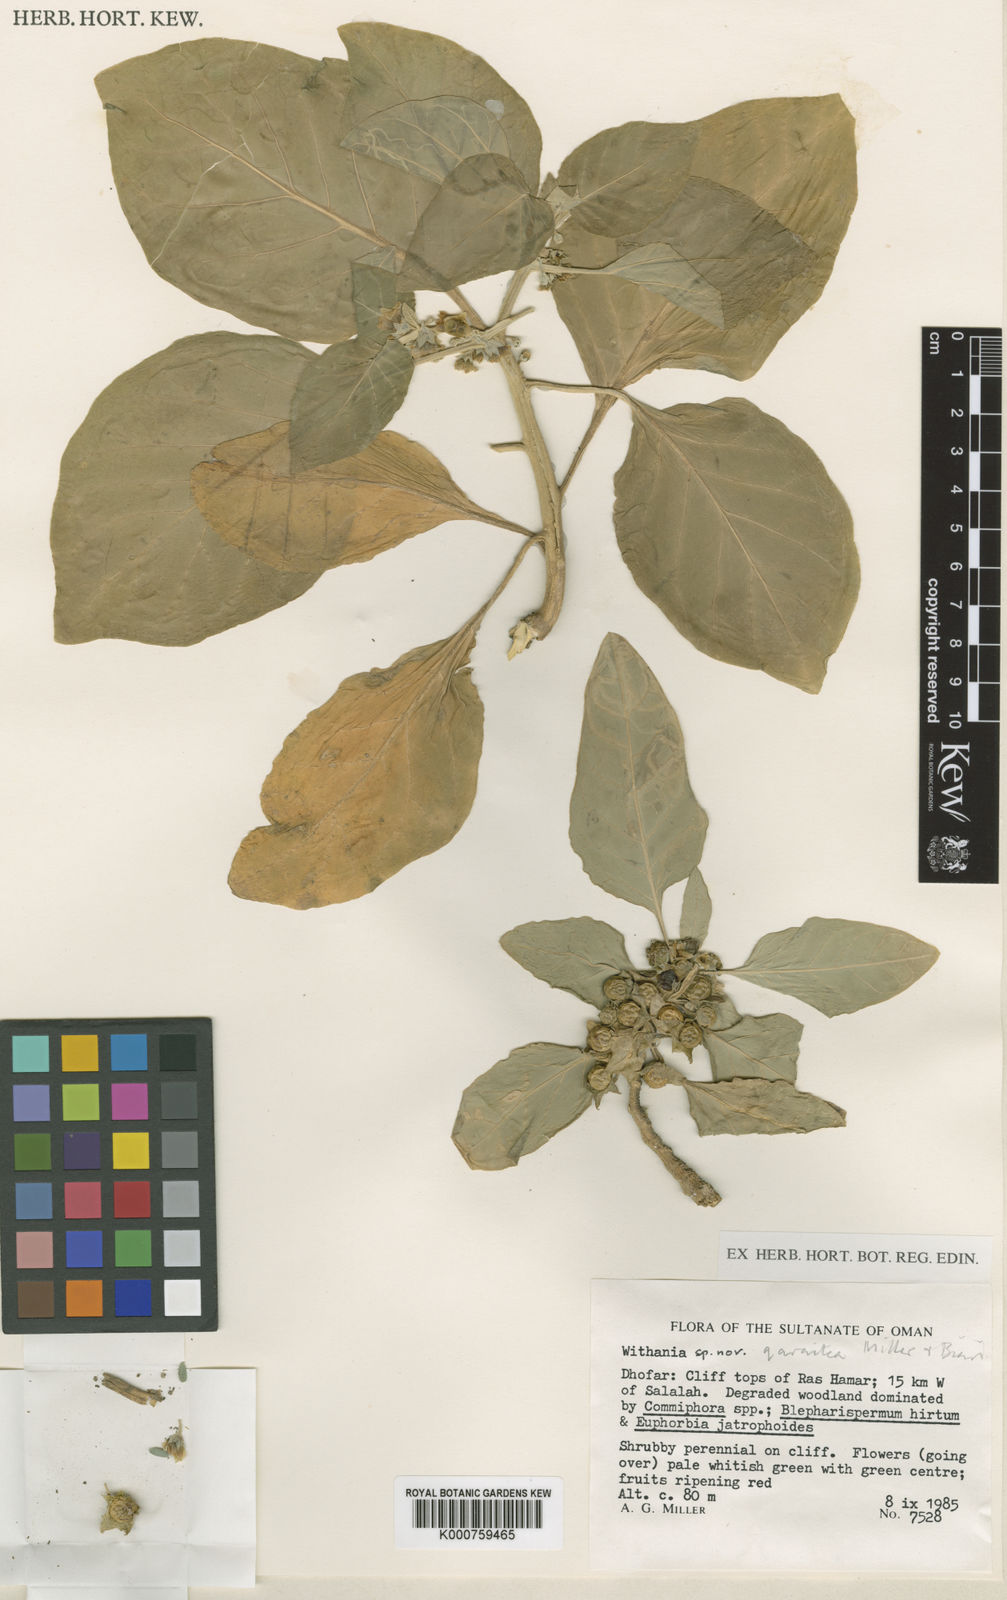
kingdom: Plantae
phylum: Tracheophyta
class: Magnoliopsida
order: Solanales
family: Solanaceae
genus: Withania
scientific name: Withania qaraitica
